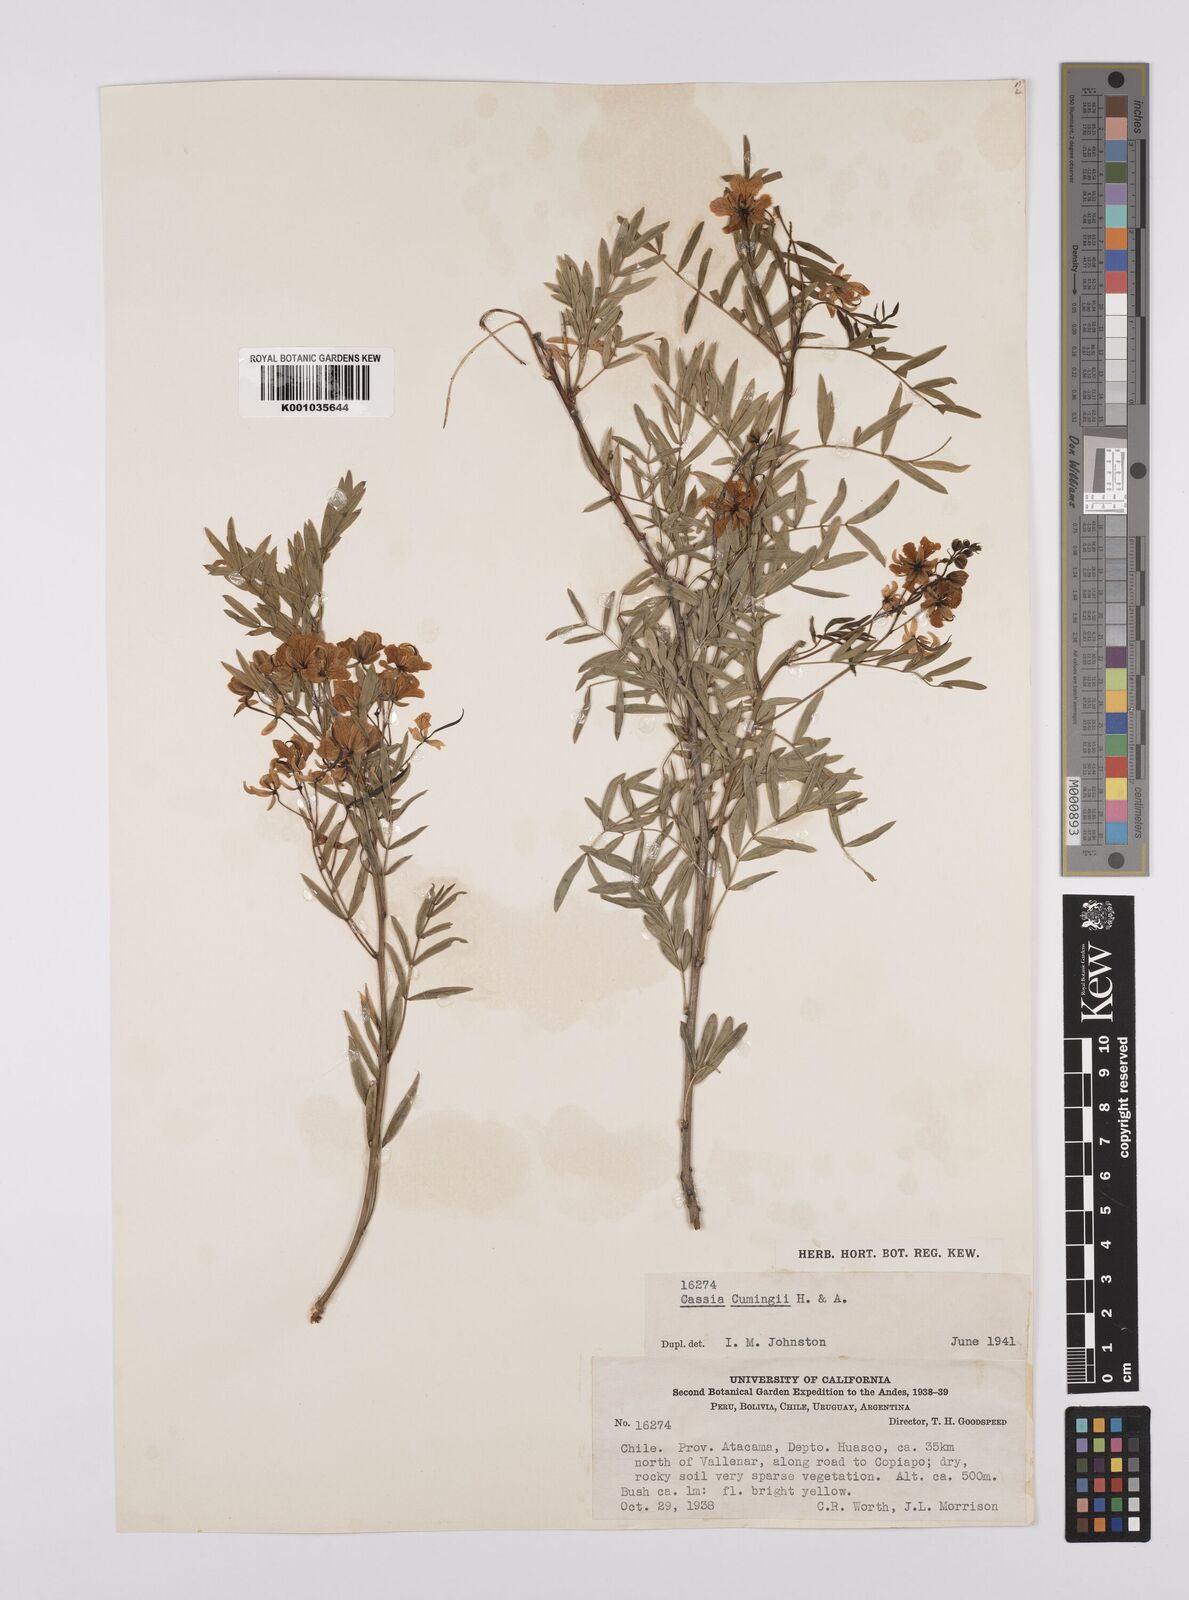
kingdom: Plantae
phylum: Tracheophyta
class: Magnoliopsida
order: Fabales
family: Fabaceae
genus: Senna
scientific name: Senna cumingii
